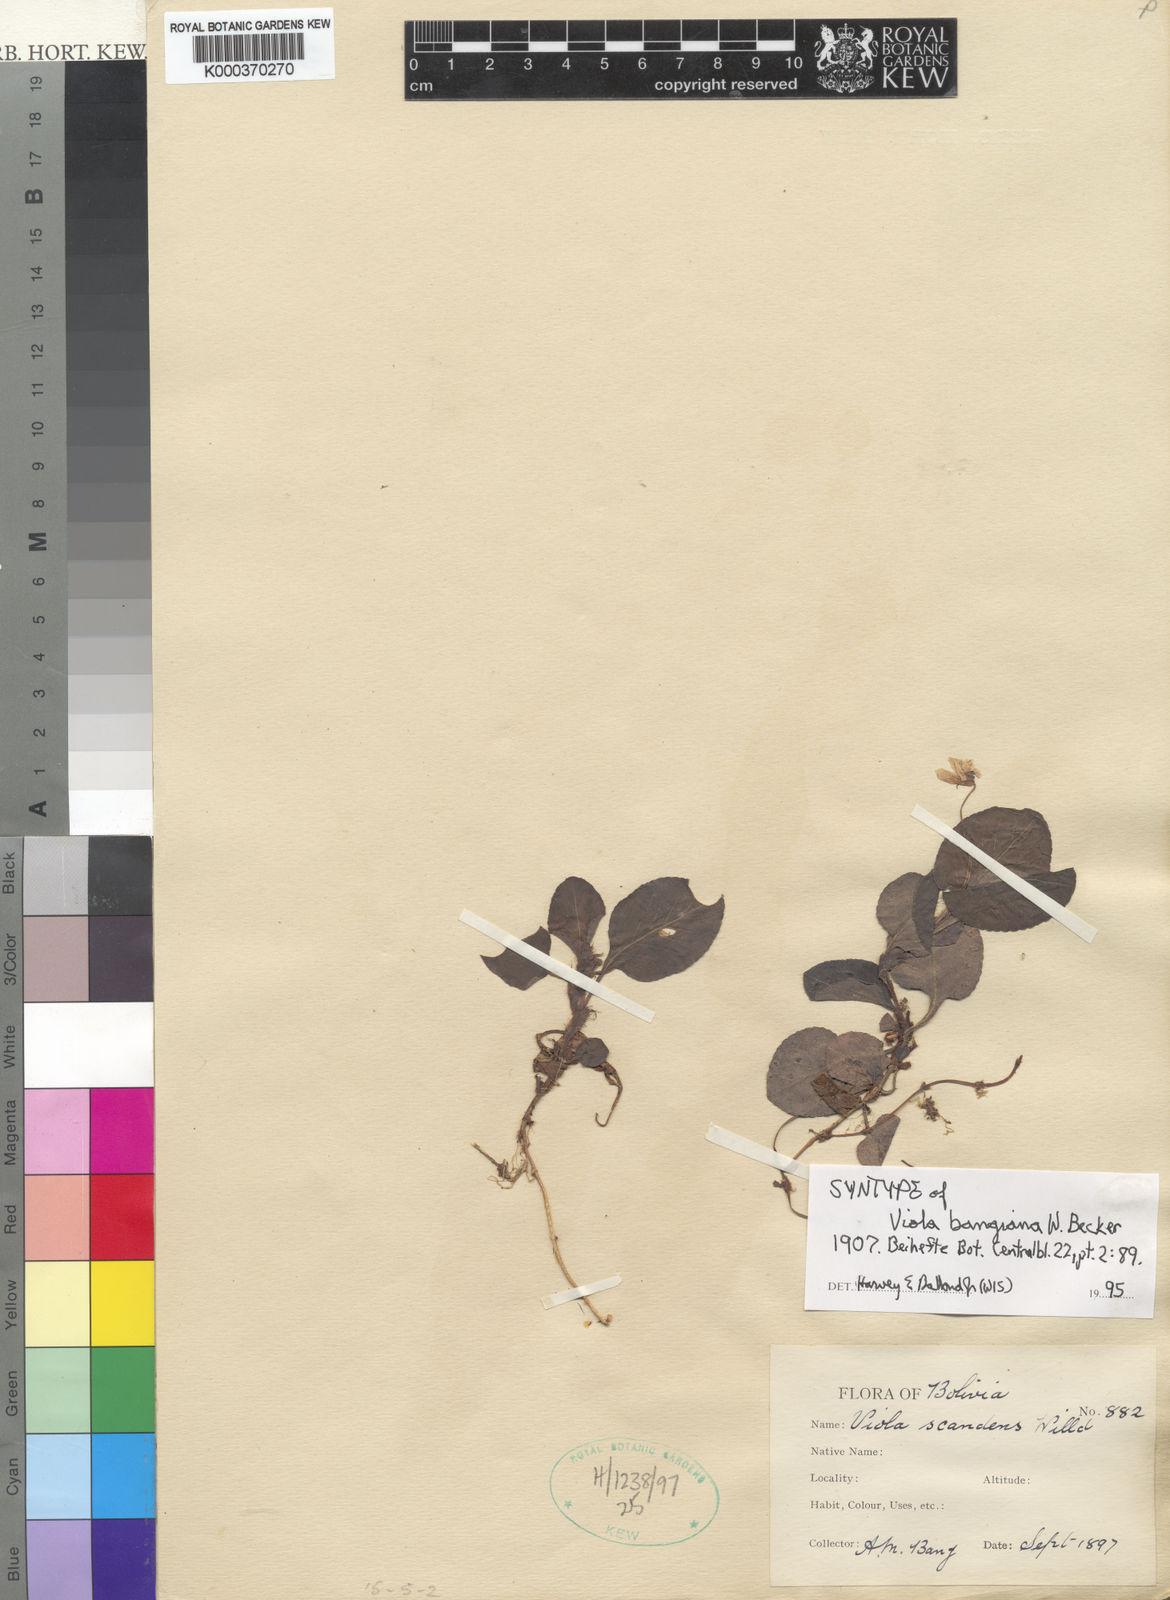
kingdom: Plantae
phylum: Tracheophyta
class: Magnoliopsida
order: Malpighiales
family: Violaceae
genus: Viola
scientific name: Viola boliviana
